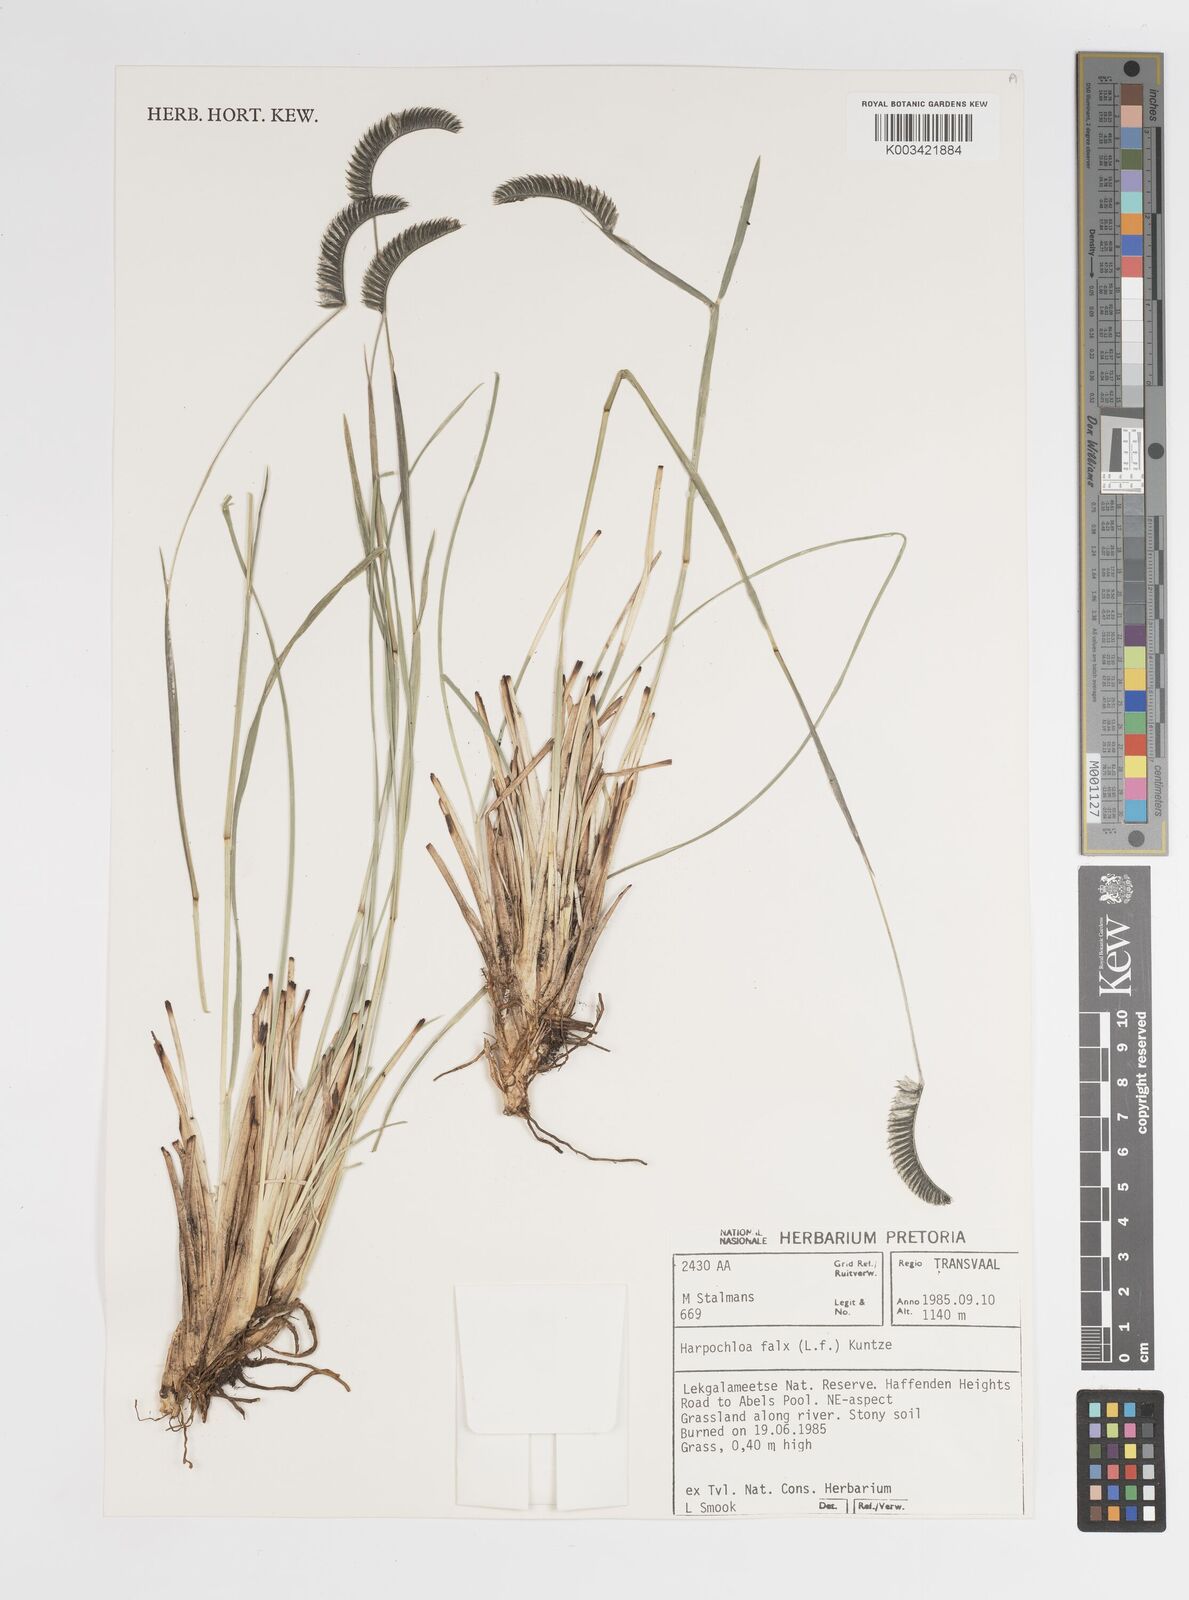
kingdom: Plantae
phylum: Tracheophyta
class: Liliopsida
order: Poales
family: Poaceae
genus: Harpochloa
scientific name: Harpochloa falx
